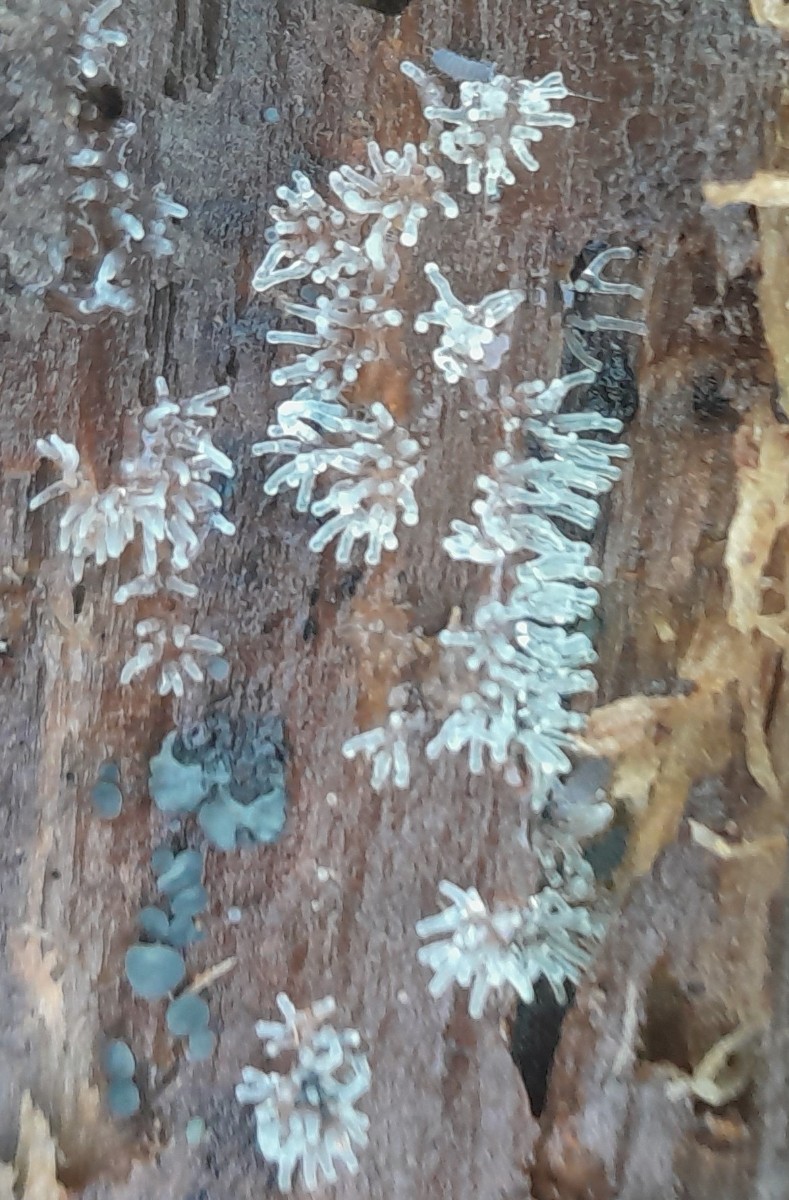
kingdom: Protozoa
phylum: Mycetozoa
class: Protosteliomycetes
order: Ceratiomyxales
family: Ceratiomyxaceae
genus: Ceratiomyxa
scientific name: Ceratiomyxa fruticulosa
